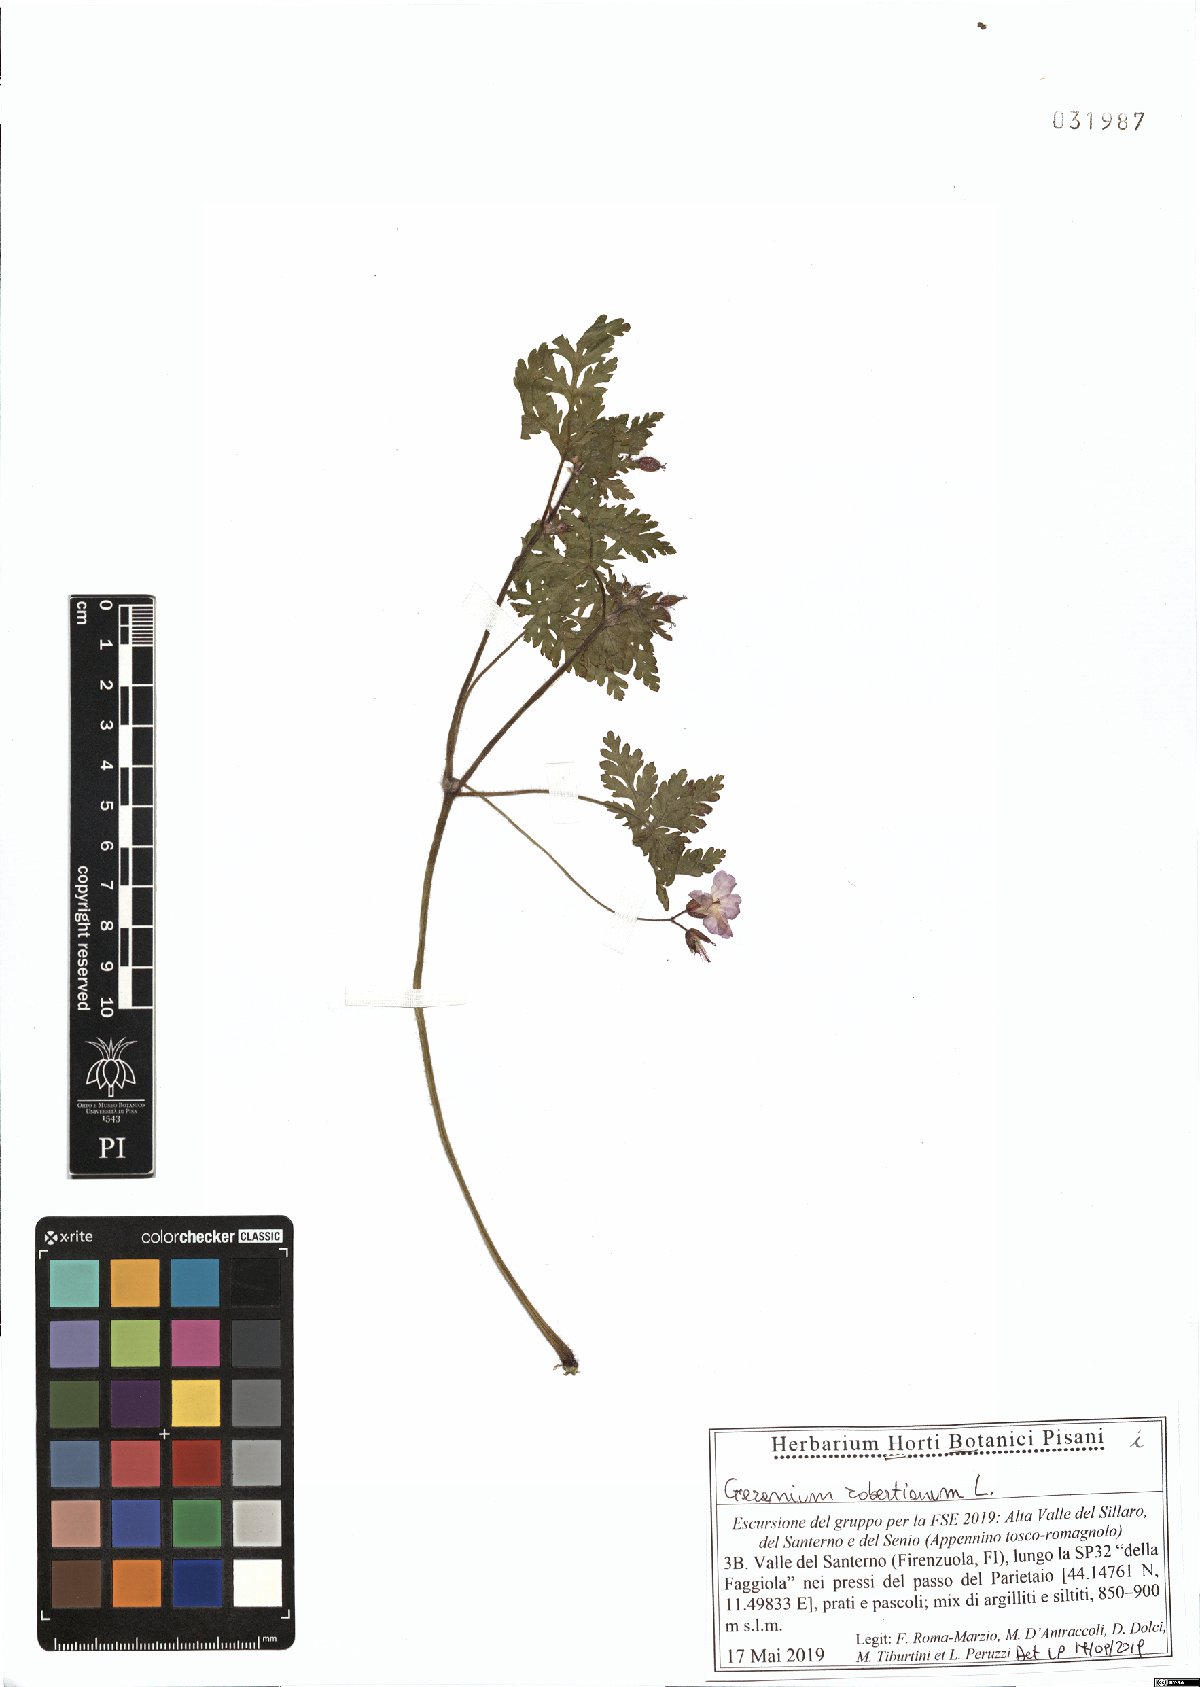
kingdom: Plantae
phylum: Tracheophyta
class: Magnoliopsida
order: Geraniales
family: Geraniaceae
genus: Geranium
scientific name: Geranium robertianum
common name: Herb-robert
